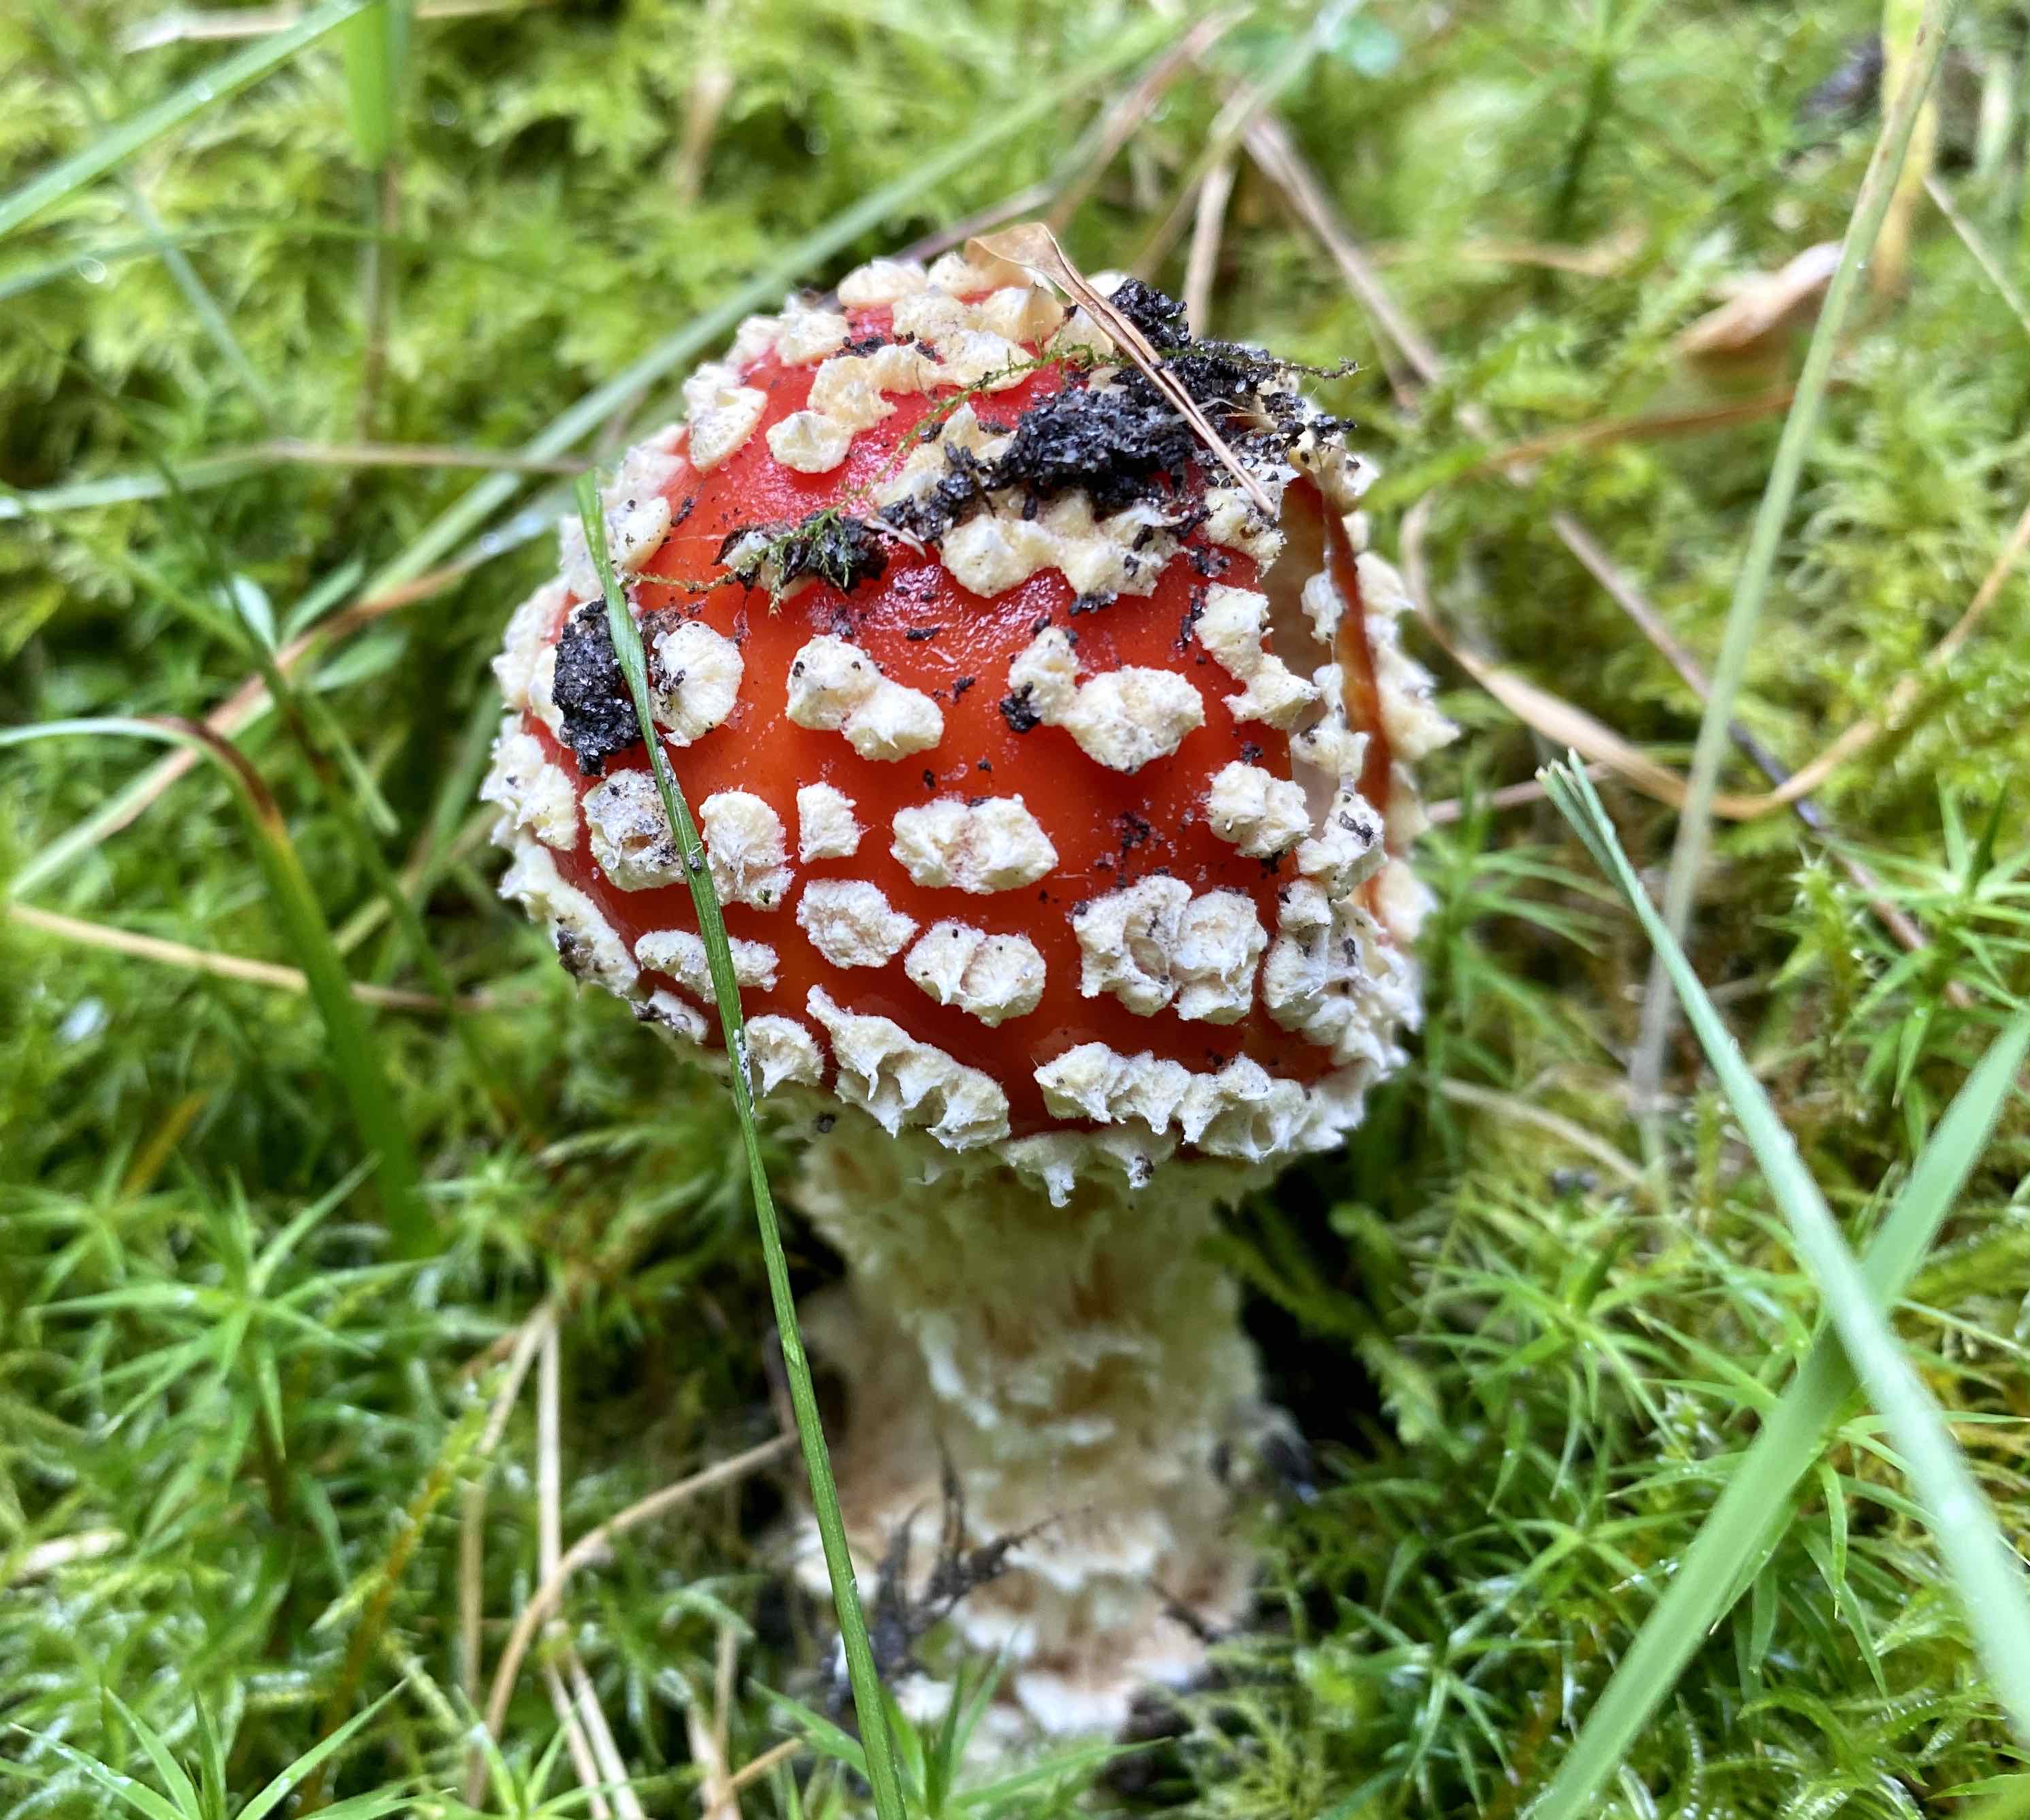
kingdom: Fungi
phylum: Basidiomycota
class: Agaricomycetes
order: Agaricales
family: Amanitaceae
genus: Amanita
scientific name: Amanita muscaria
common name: rød fluesvamp
